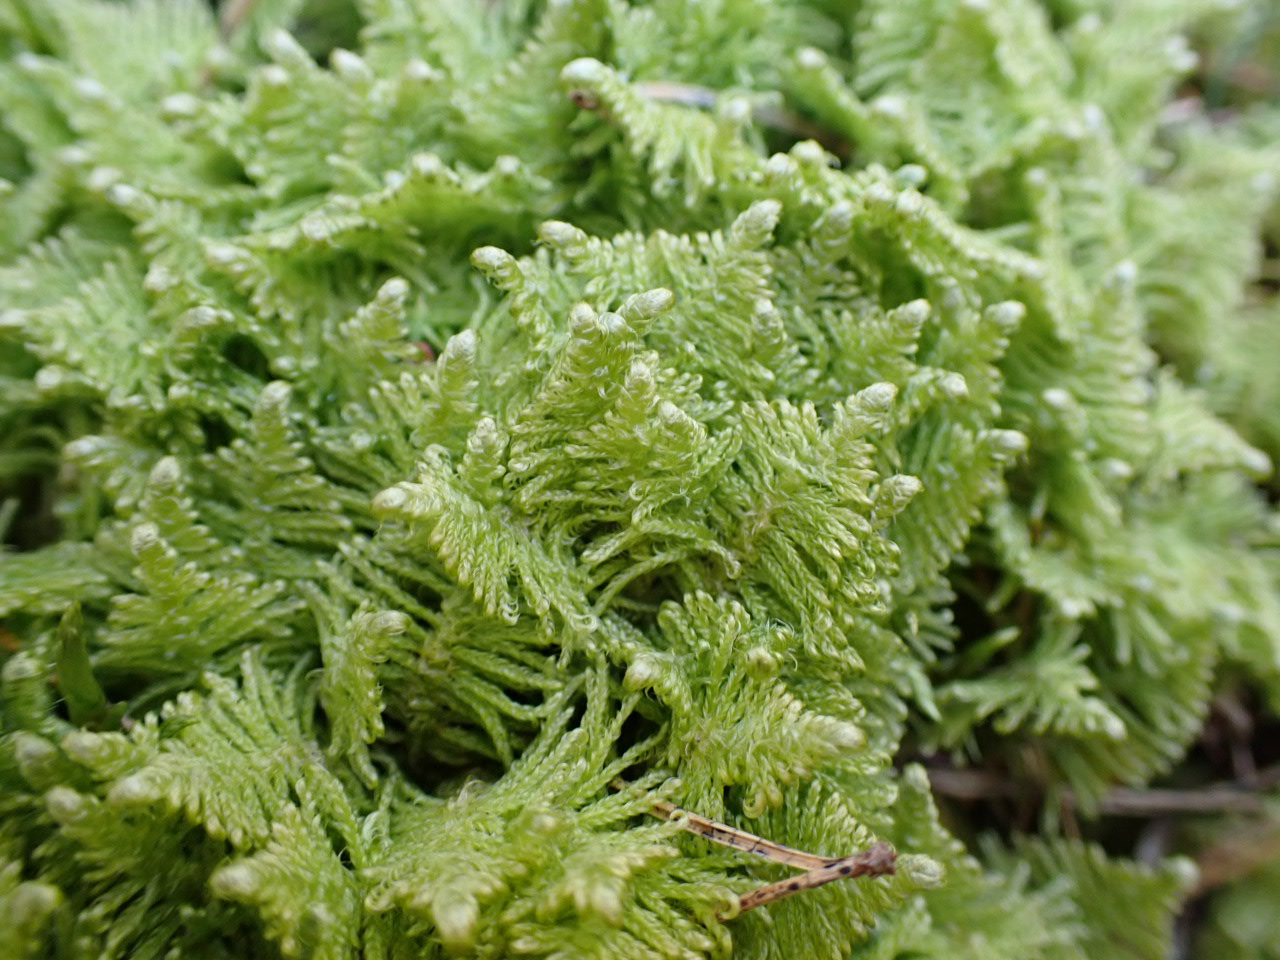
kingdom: Plantae
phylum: Bryophyta
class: Bryopsida
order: Hypnales
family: Pylaisiaceae
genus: Ptilium
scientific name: Ptilium crista-castrensis
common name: Fjer-kammos
